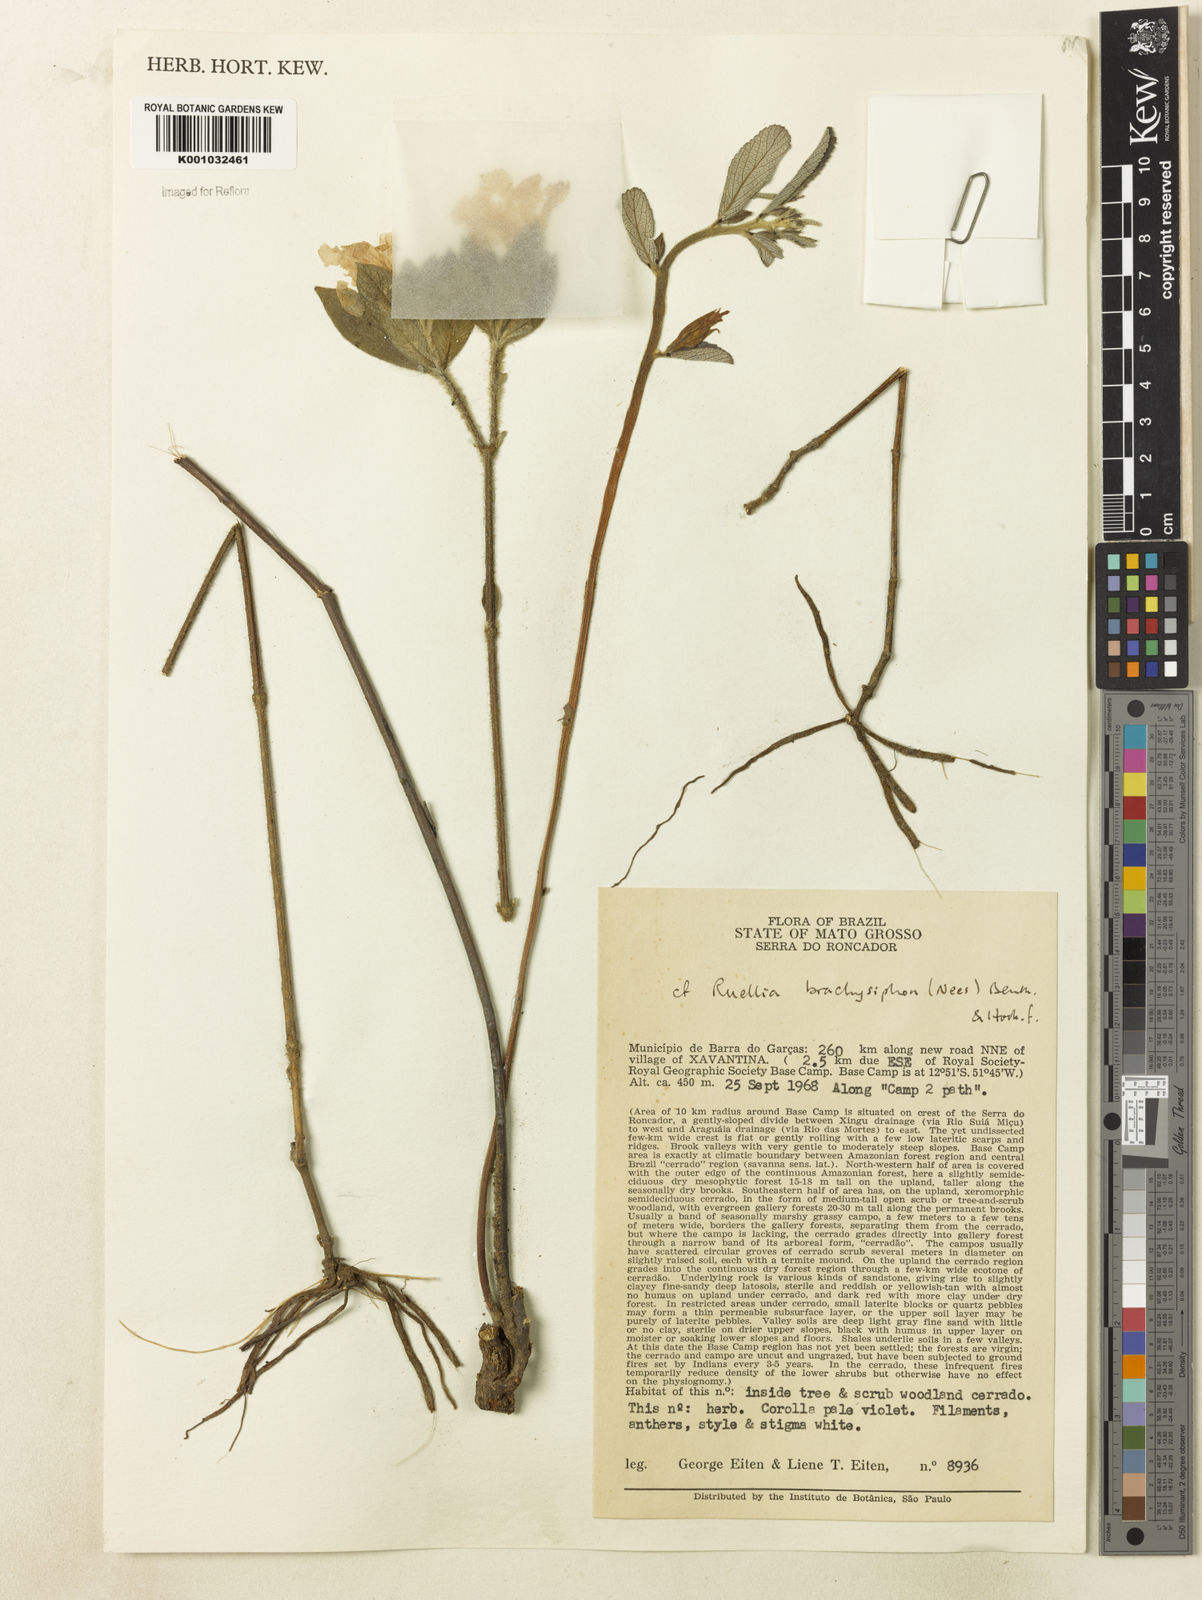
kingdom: Plantae
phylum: Tracheophyta
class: Magnoliopsida
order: Lamiales
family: Acanthaceae
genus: Ruellia
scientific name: Ruellia
